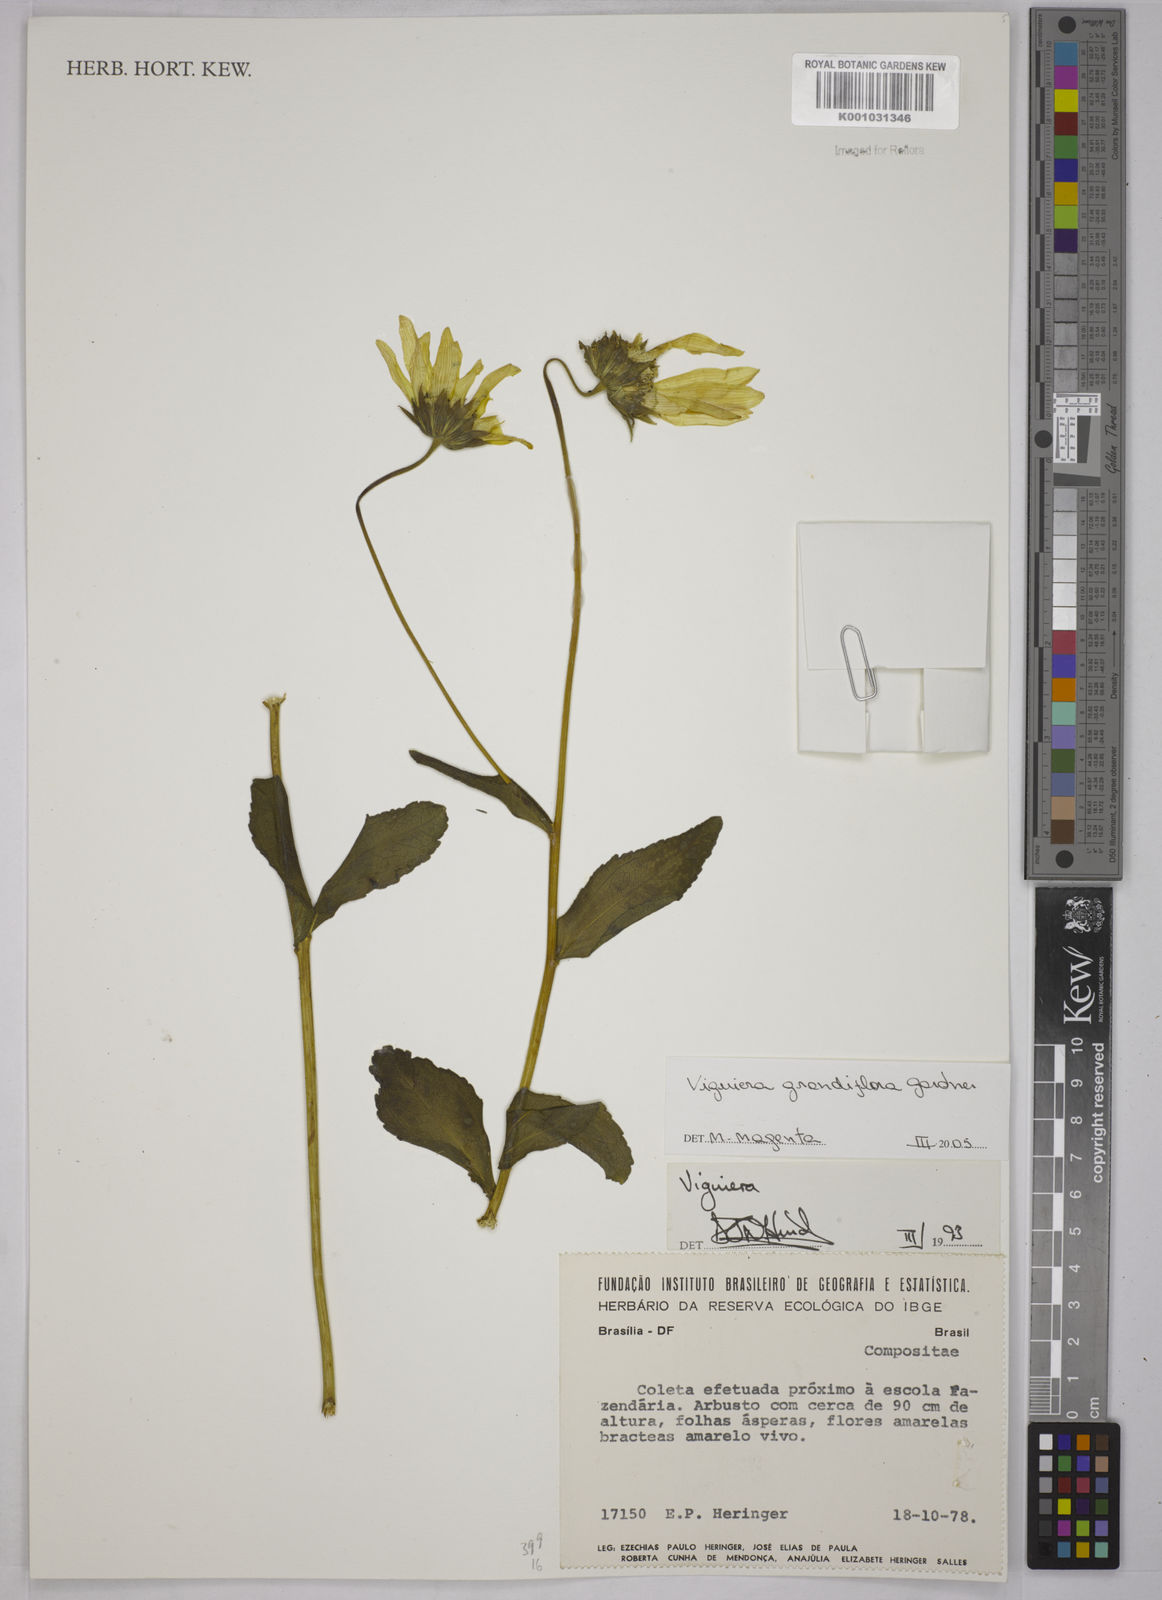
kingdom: Plantae
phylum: Tracheophyta
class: Magnoliopsida
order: Asterales
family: Asteraceae
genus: Aldama
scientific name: Aldama grandiflora
